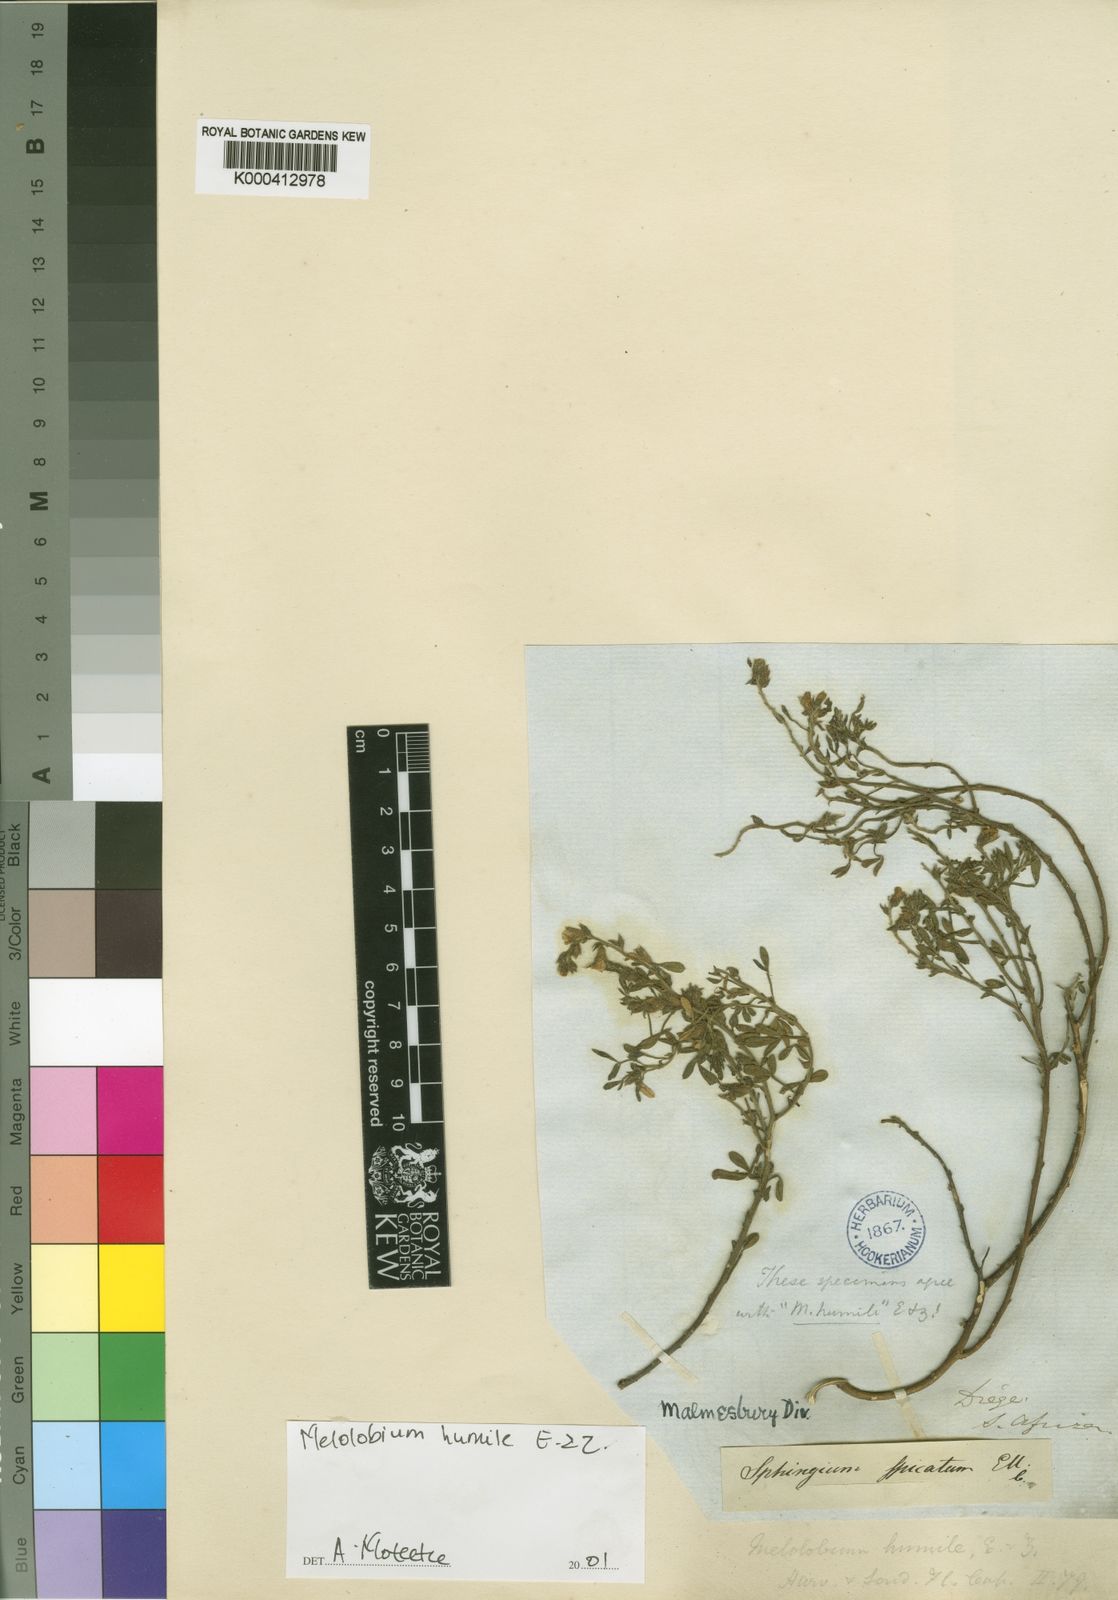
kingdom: Plantae
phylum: Tracheophyta
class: Magnoliopsida
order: Fabales
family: Fabaceae
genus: Melolobium
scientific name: Melolobium humile
